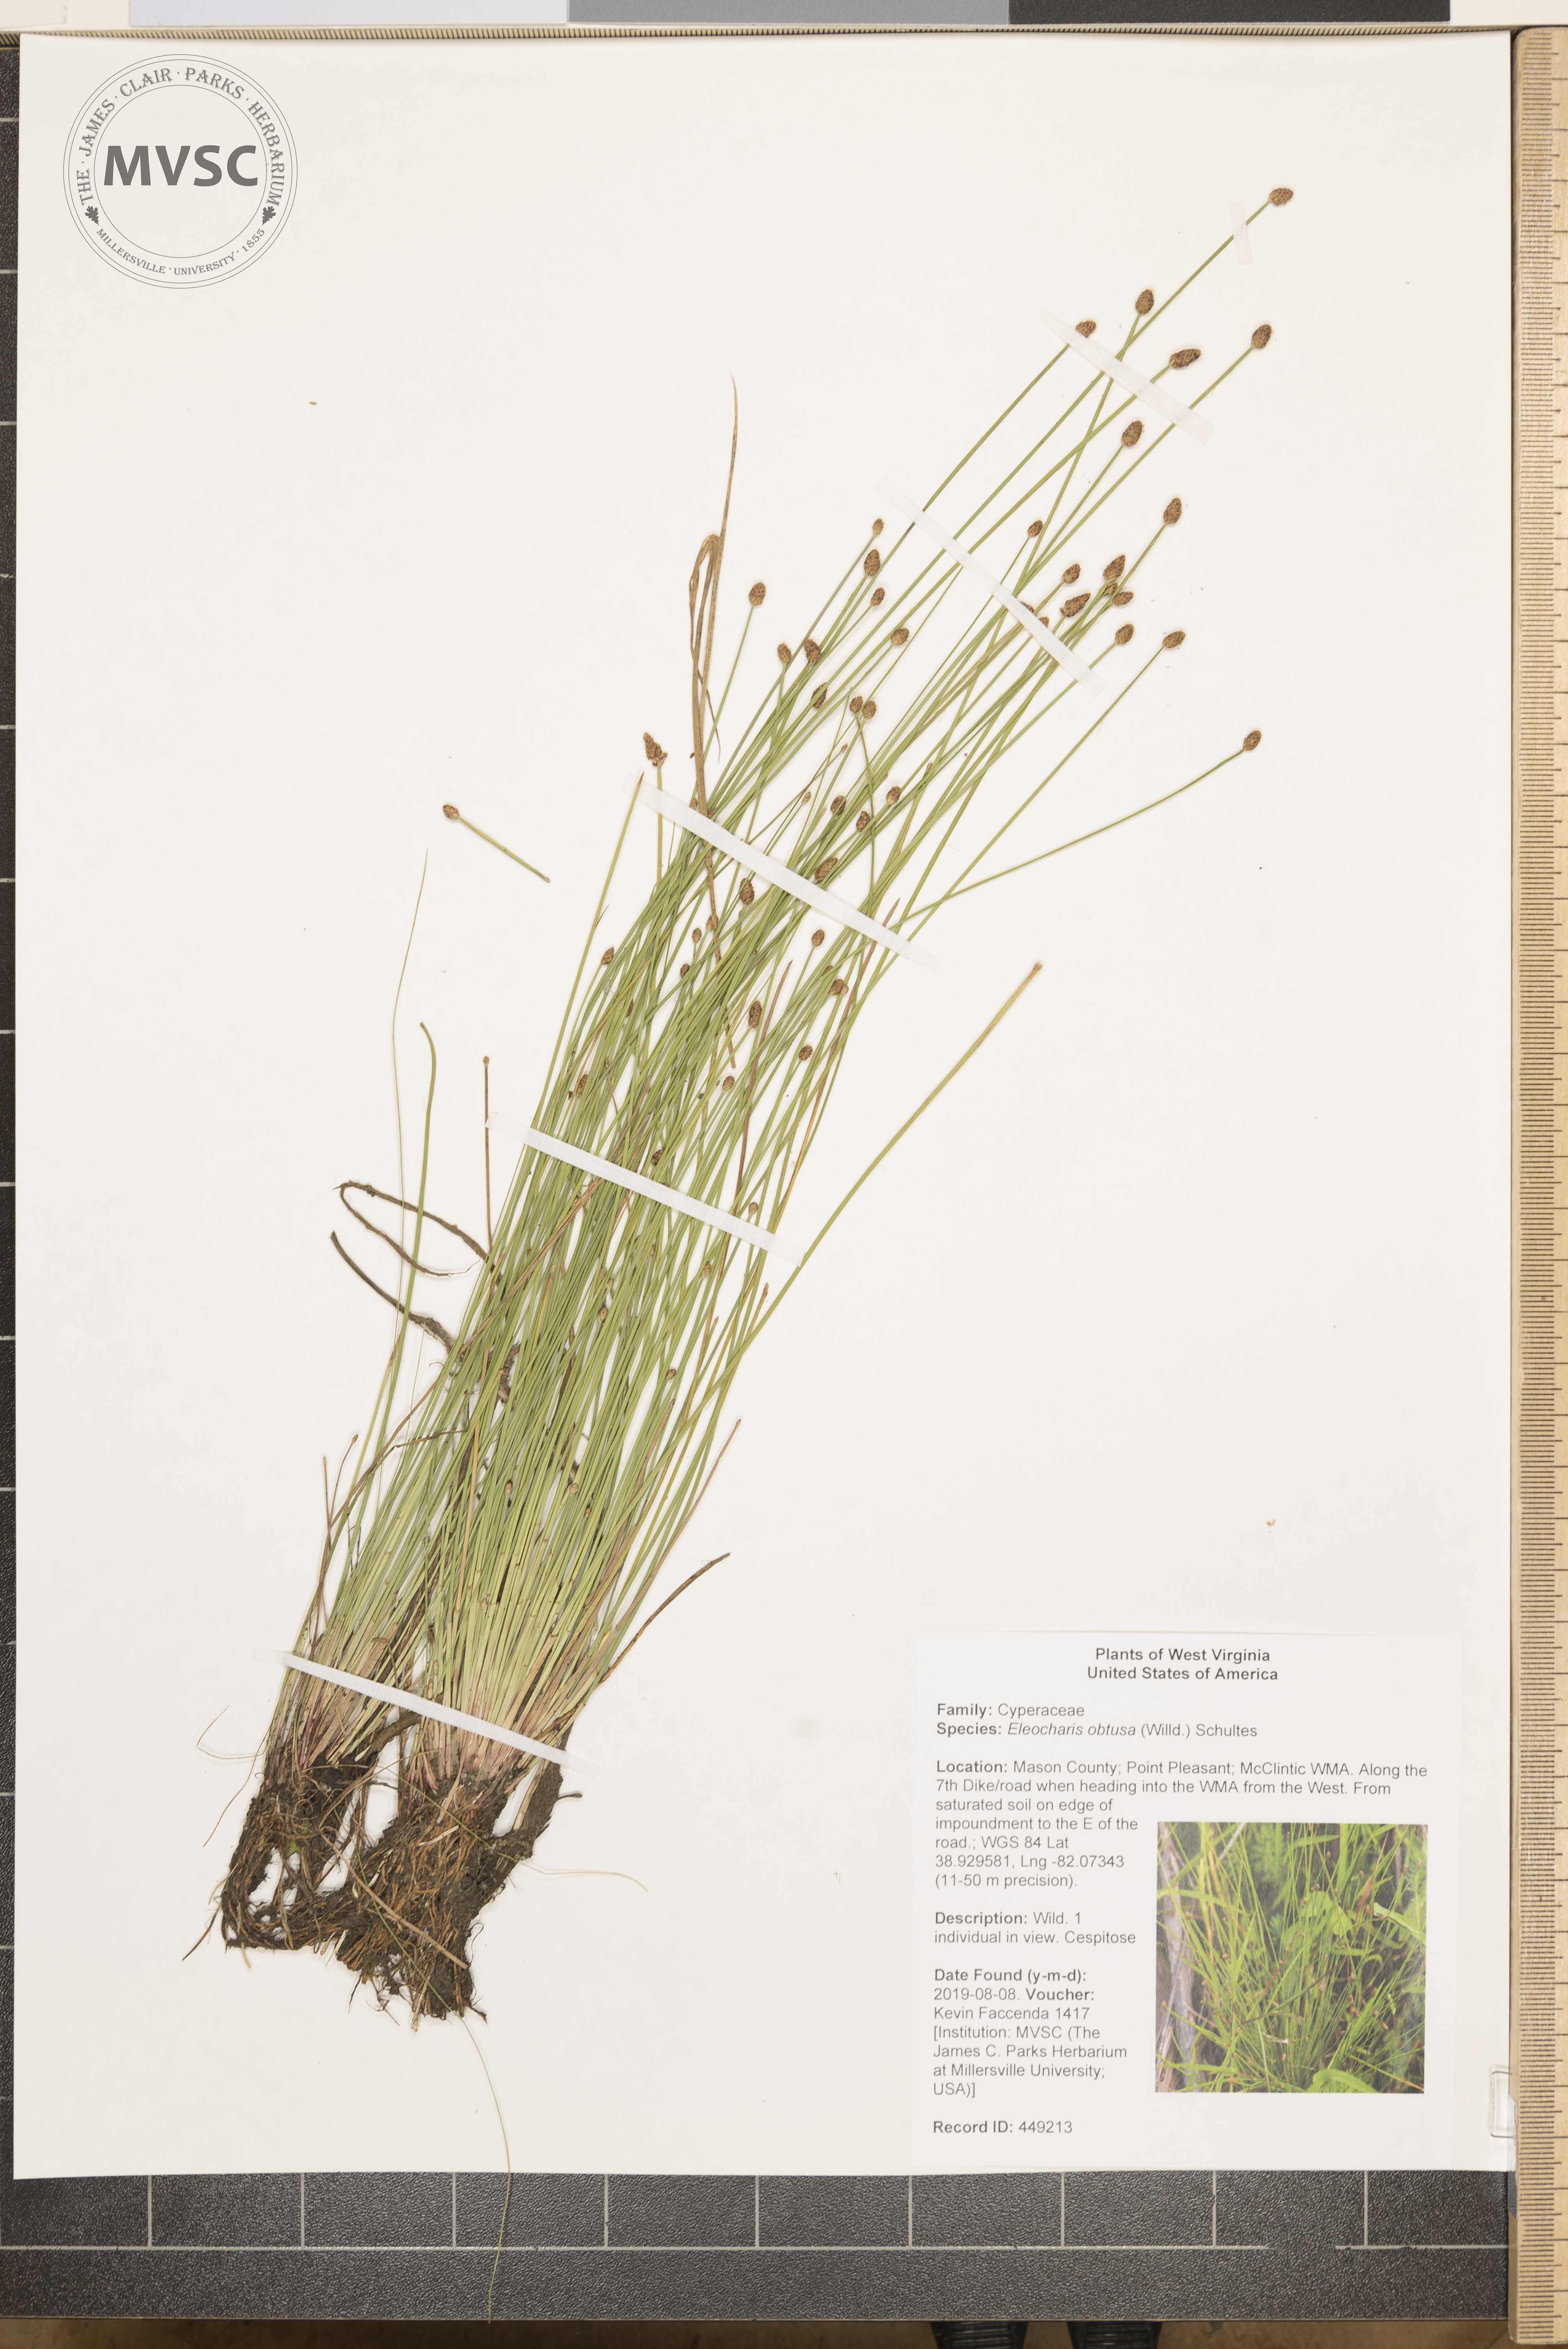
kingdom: Plantae
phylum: Tracheophyta
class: Liliopsida
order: Poales
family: Cyperaceae
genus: Eleocharis
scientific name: Eleocharis obtusa
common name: Blunt spikerush
